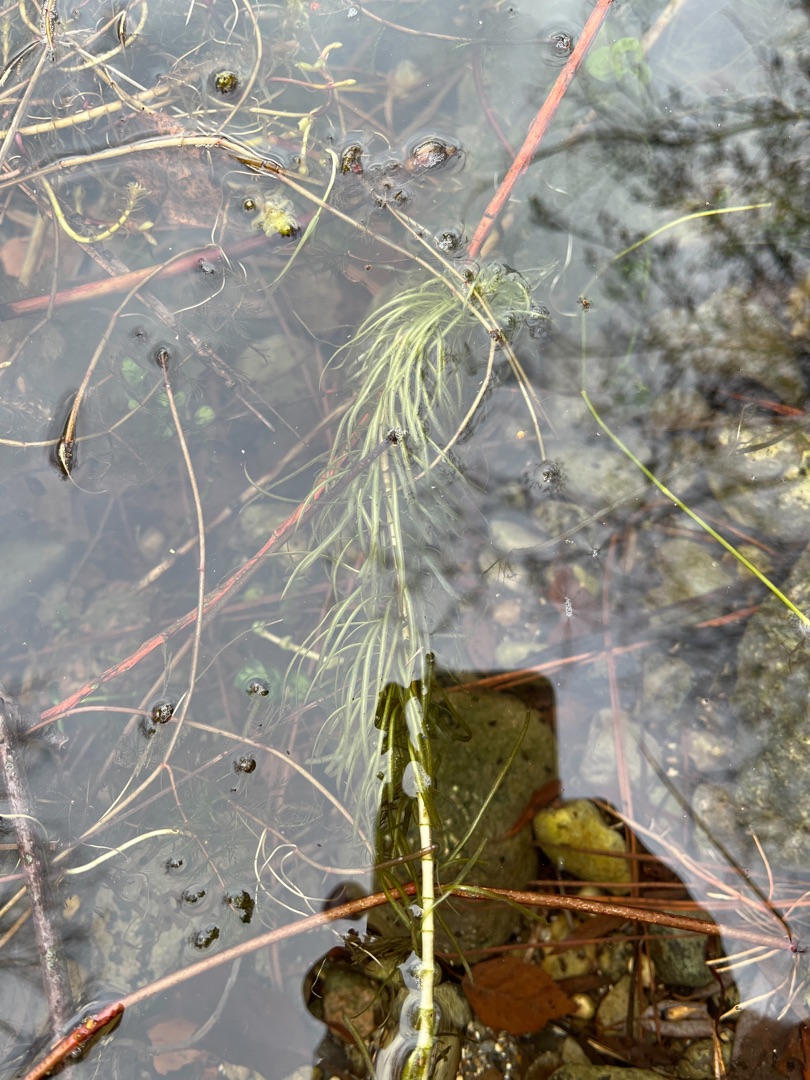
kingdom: Plantae
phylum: Tracheophyta
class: Magnoliopsida
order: Lamiales
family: Plantaginaceae
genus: Hippuris
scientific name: Hippuris vulgaris
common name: Vandspir
